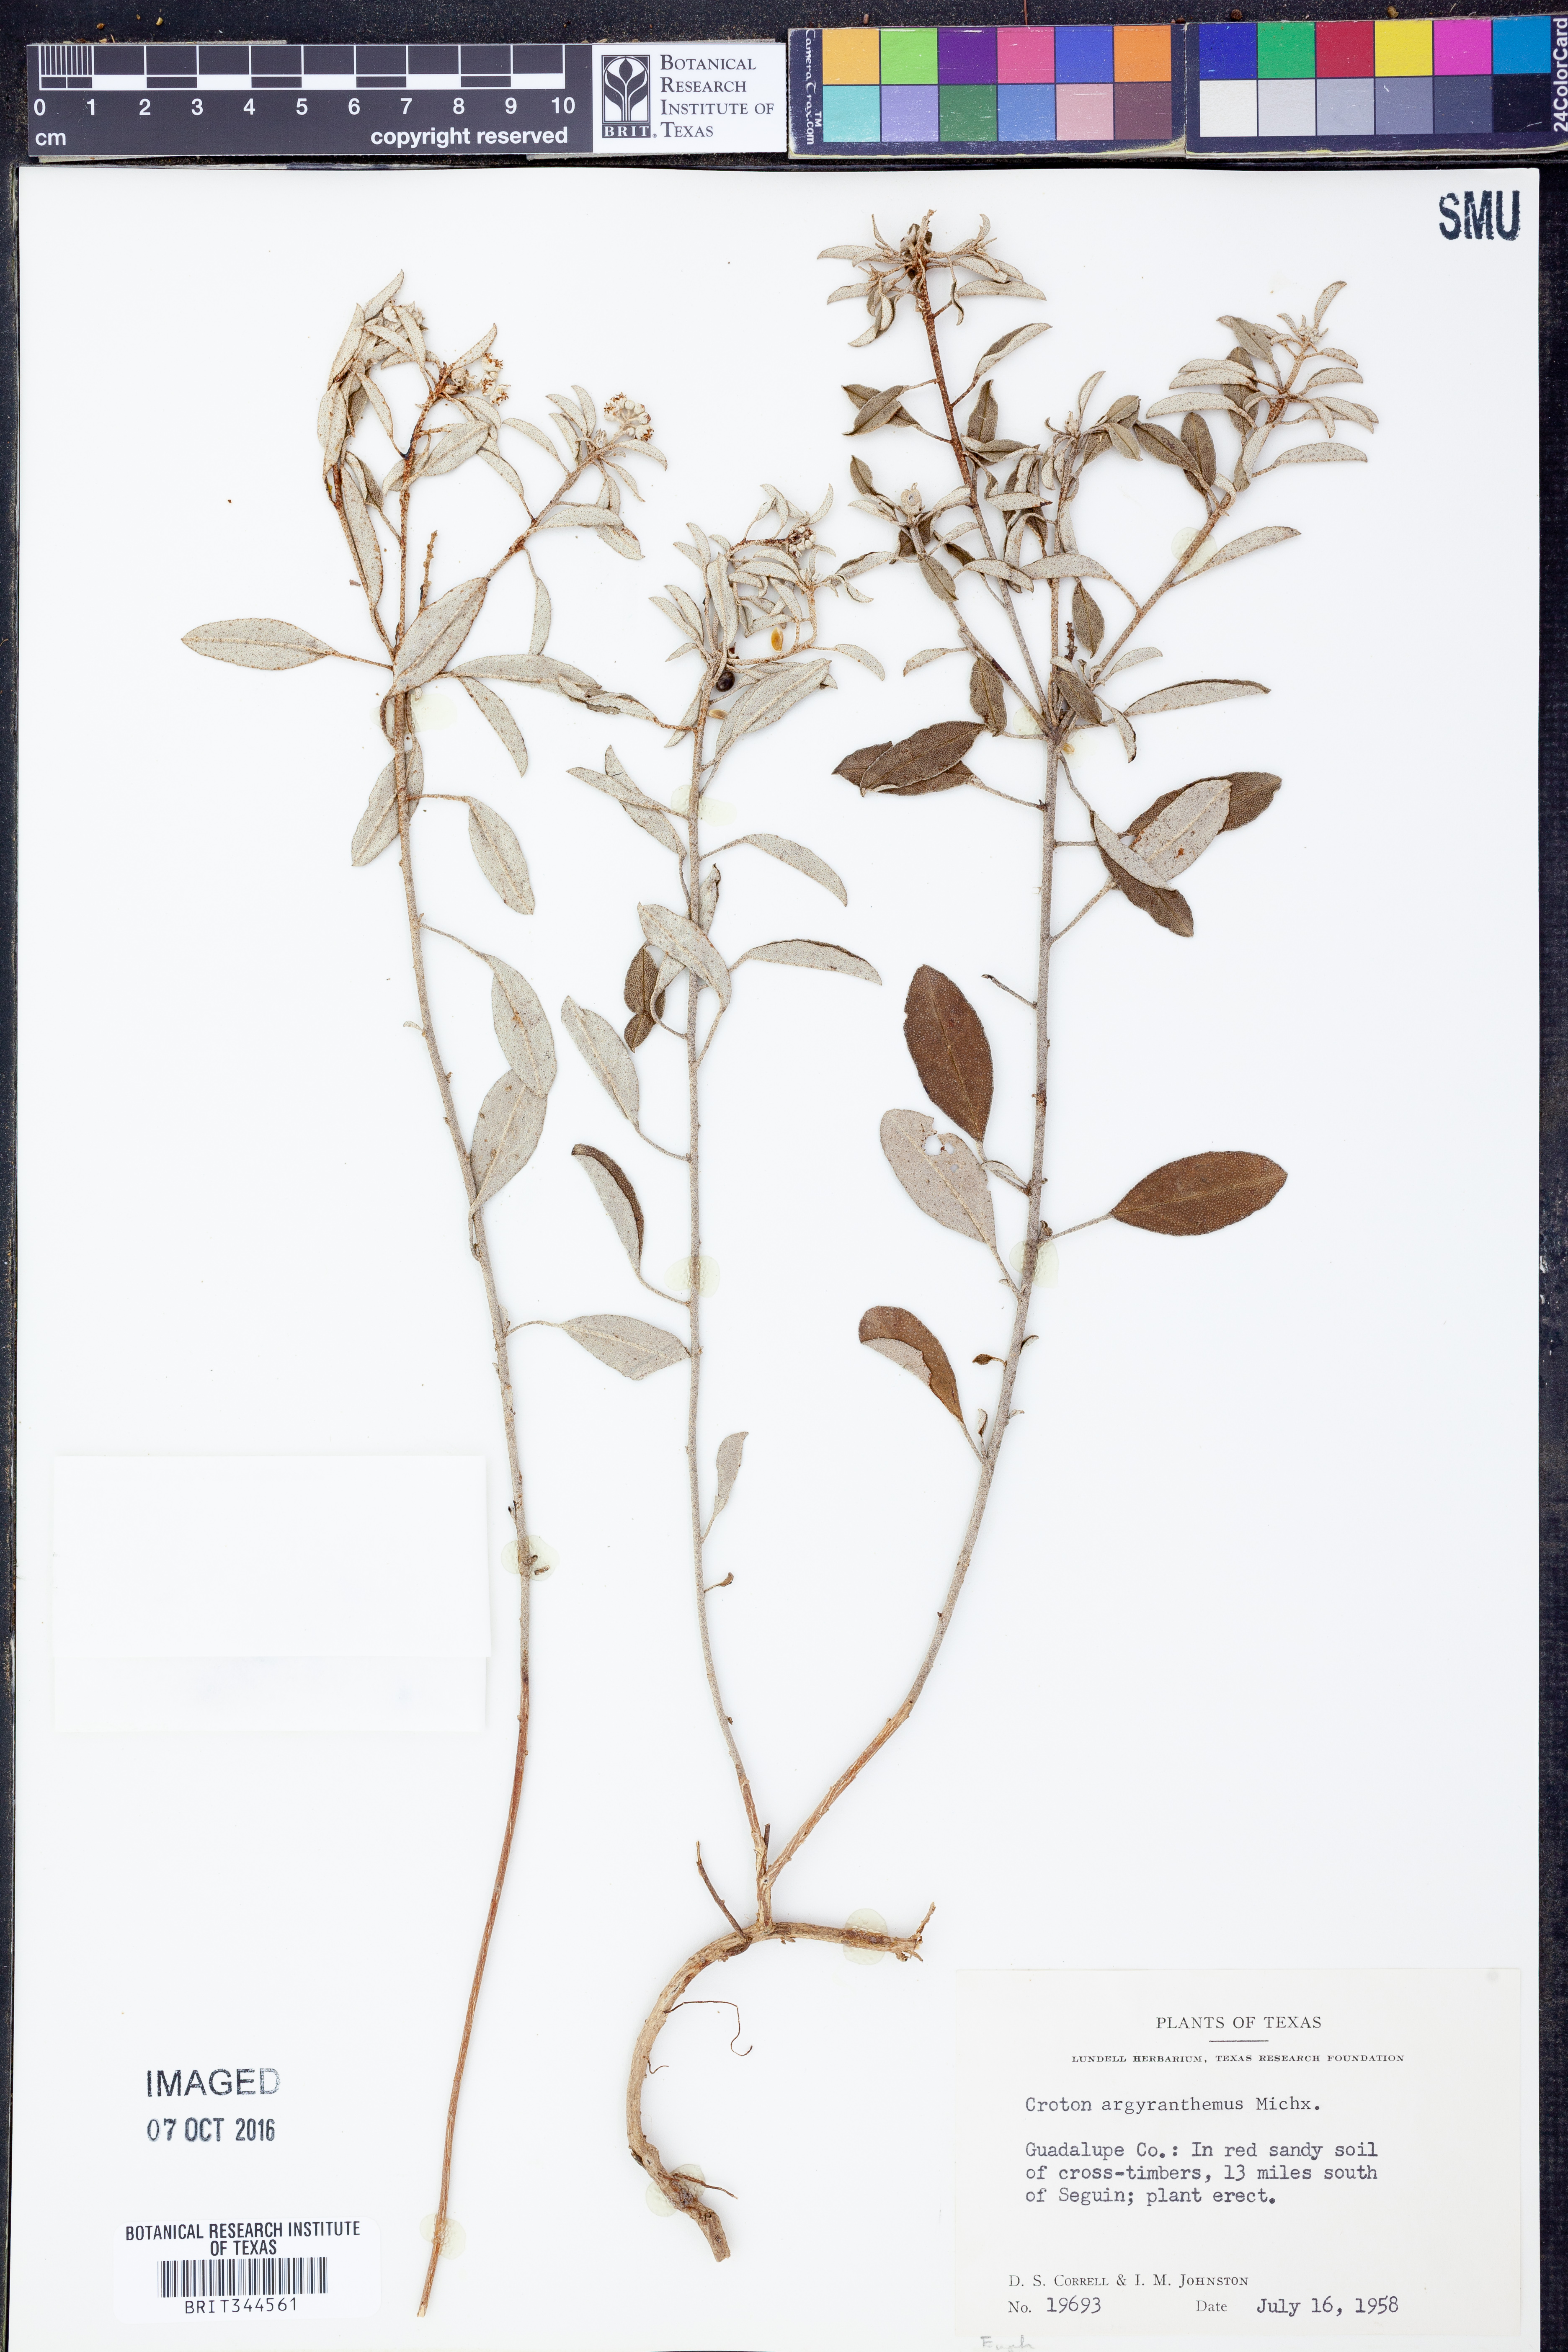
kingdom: Plantae
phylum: Tracheophyta
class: Magnoliopsida
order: Malpighiales
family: Euphorbiaceae
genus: Croton
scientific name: Croton argyranthemus
